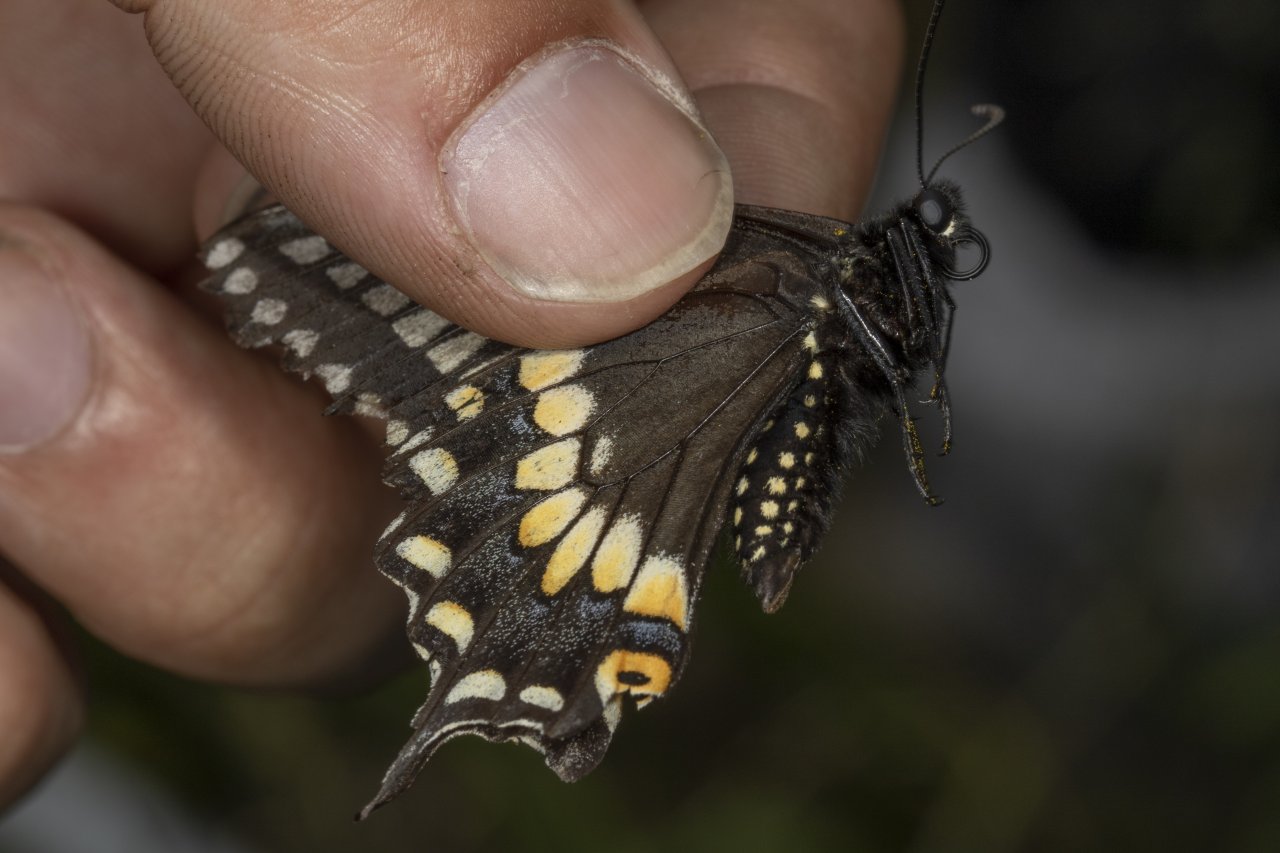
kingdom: Animalia
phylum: Arthropoda
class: Insecta
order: Lepidoptera
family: Papilionidae
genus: Papilio
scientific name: Papilio polyxenes
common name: Black Swallowtail
